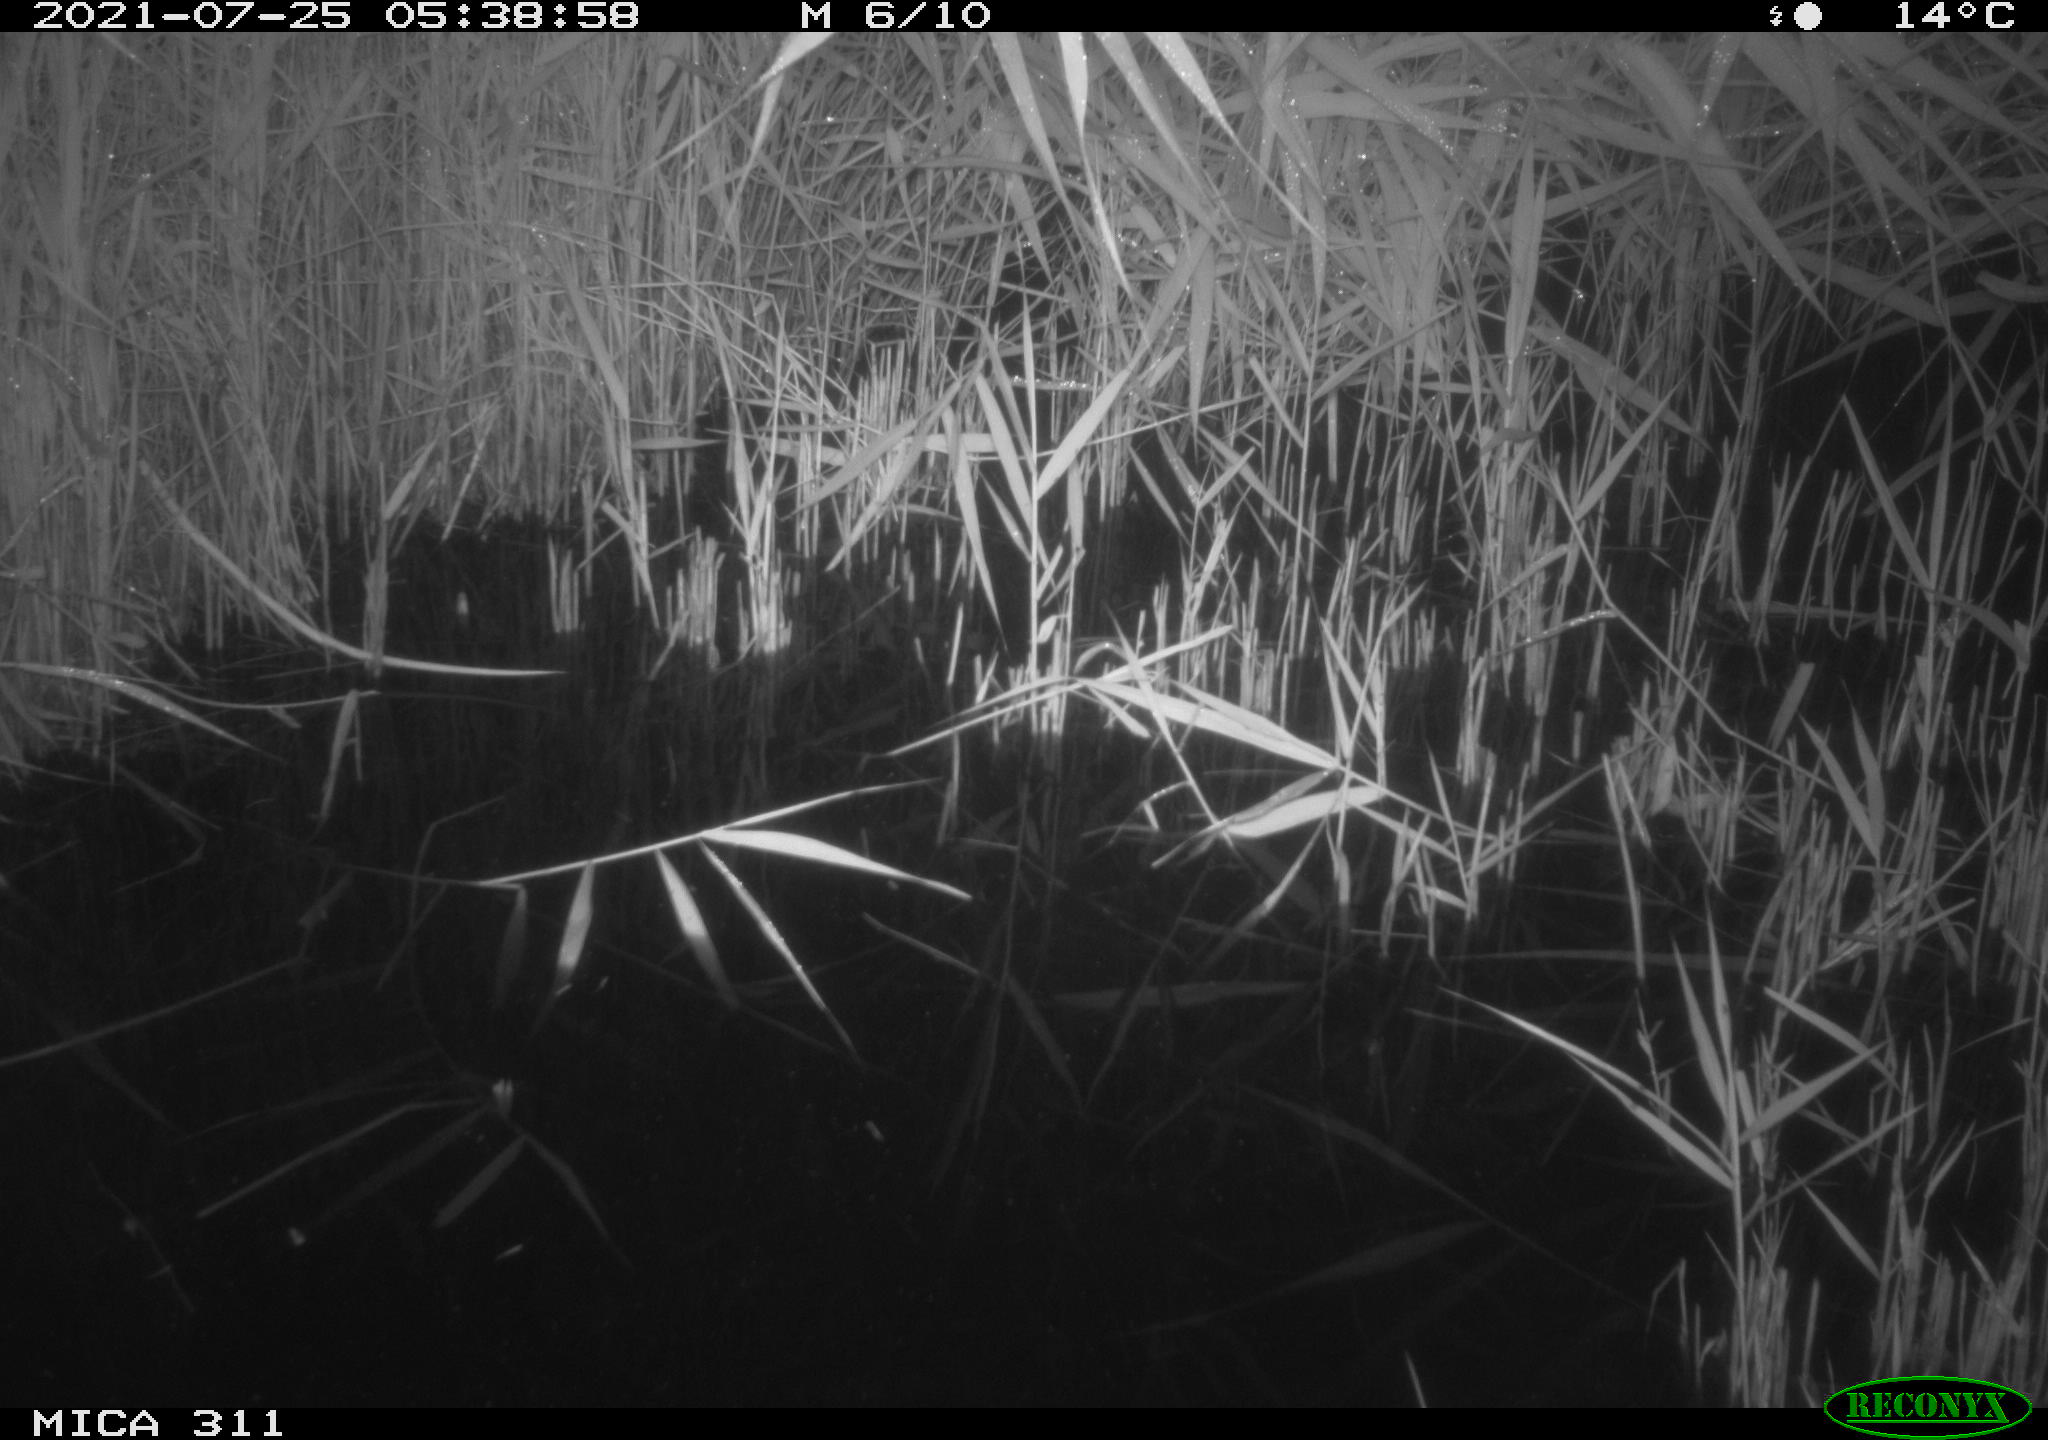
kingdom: Animalia
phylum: Chordata
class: Mammalia
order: Rodentia
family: Muridae
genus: Rattus
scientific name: Rattus norvegicus
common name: Brown rat
